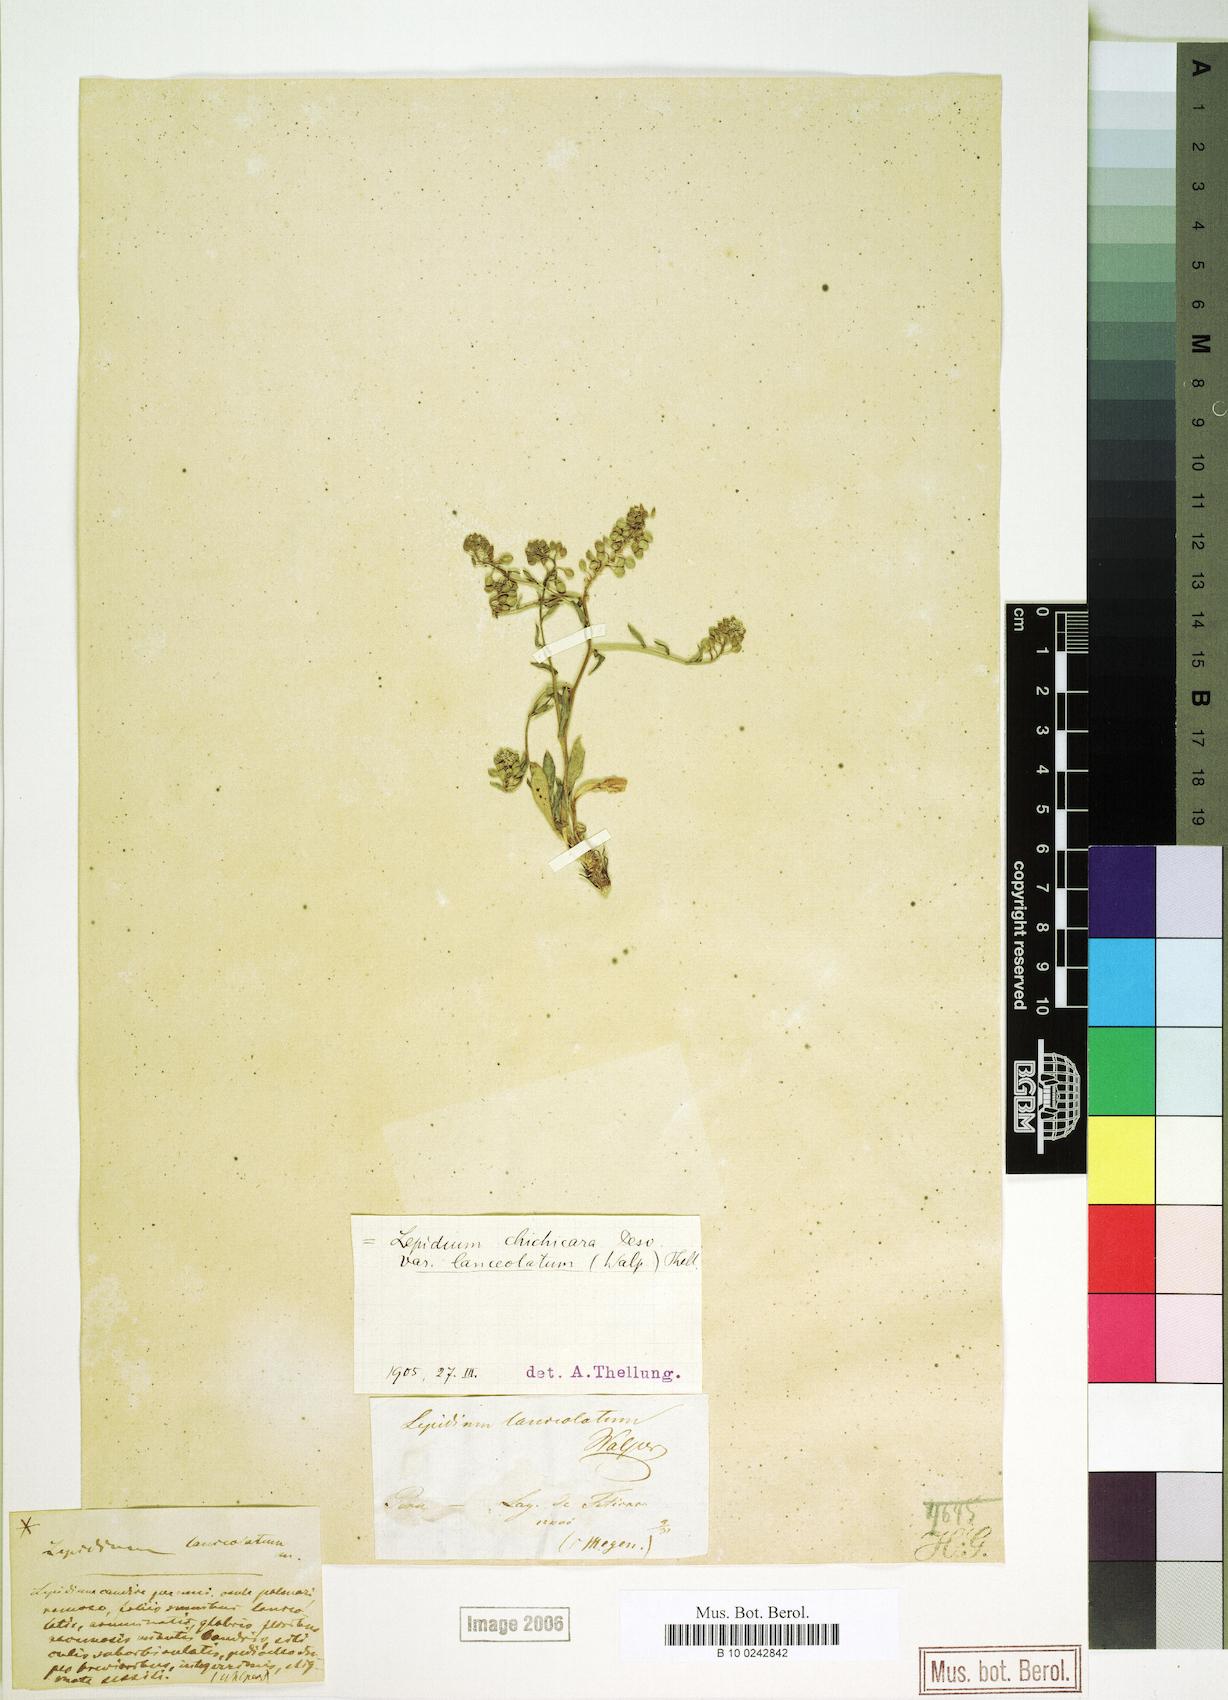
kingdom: Plantae
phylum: Tracheophyta
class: Magnoliopsida
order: Brassicales
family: Brassicaceae
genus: Lepidium
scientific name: Lepidium chichicara
